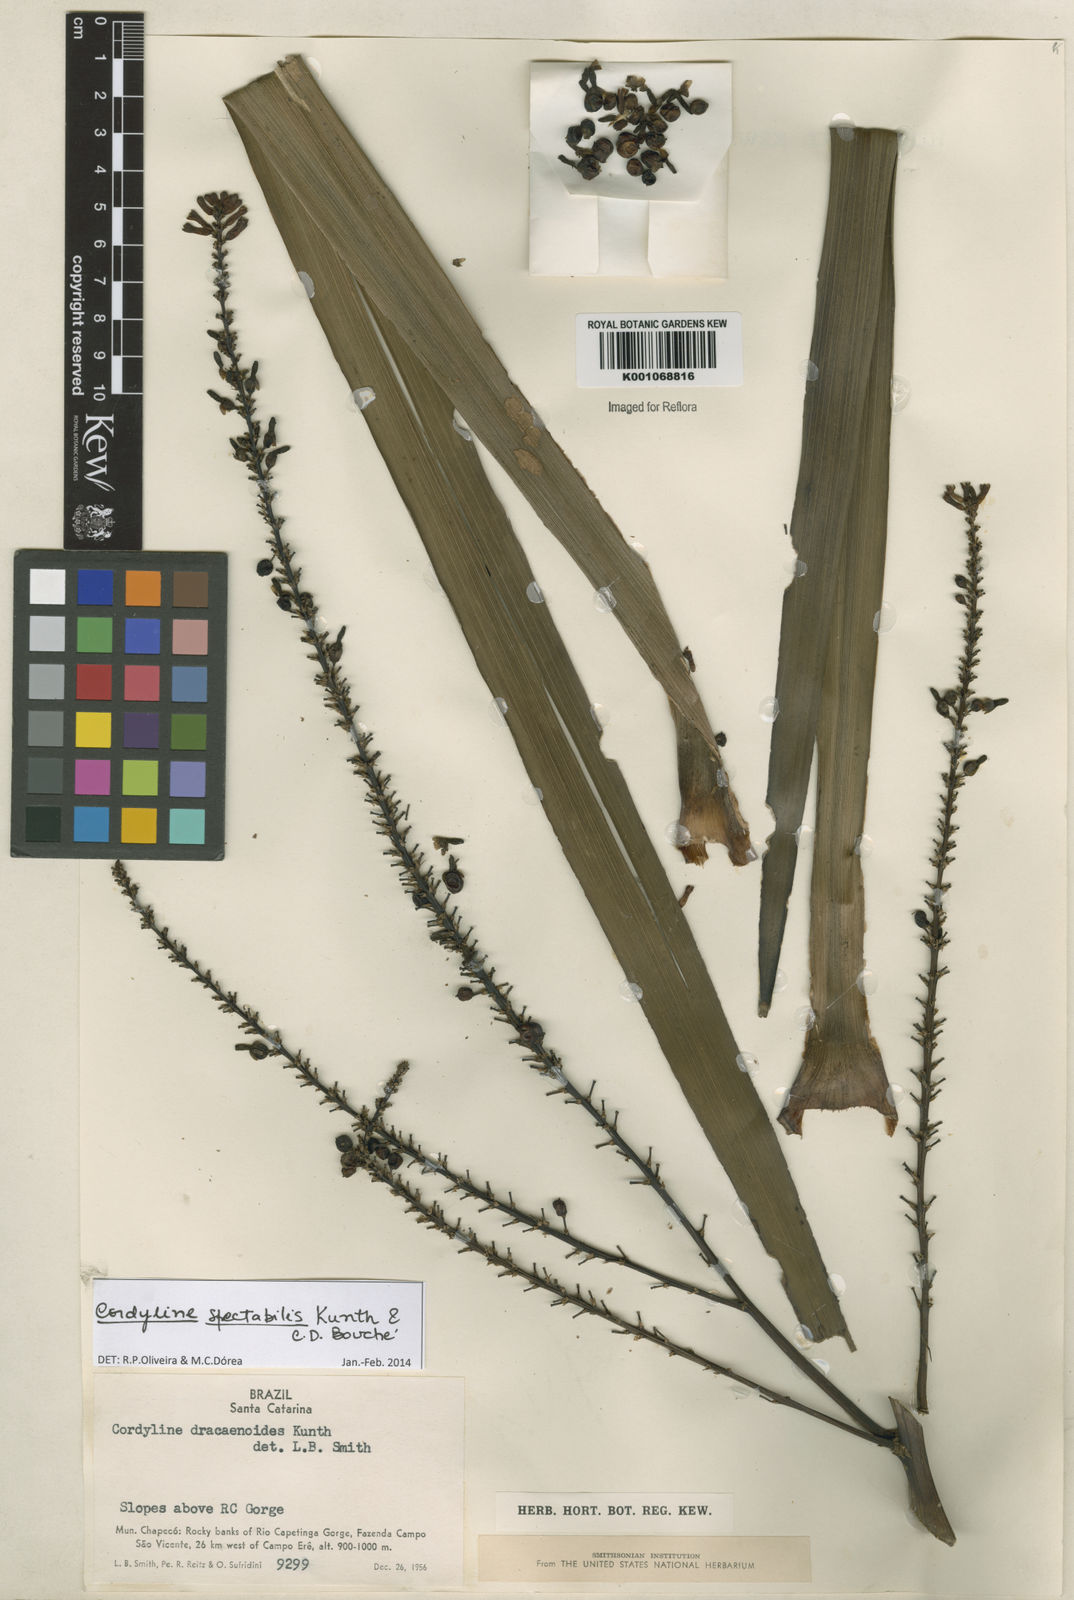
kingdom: Plantae
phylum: Tracheophyta
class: Liliopsida
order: Asparagales
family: Asparagaceae
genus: Cordyline
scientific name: Cordyline
